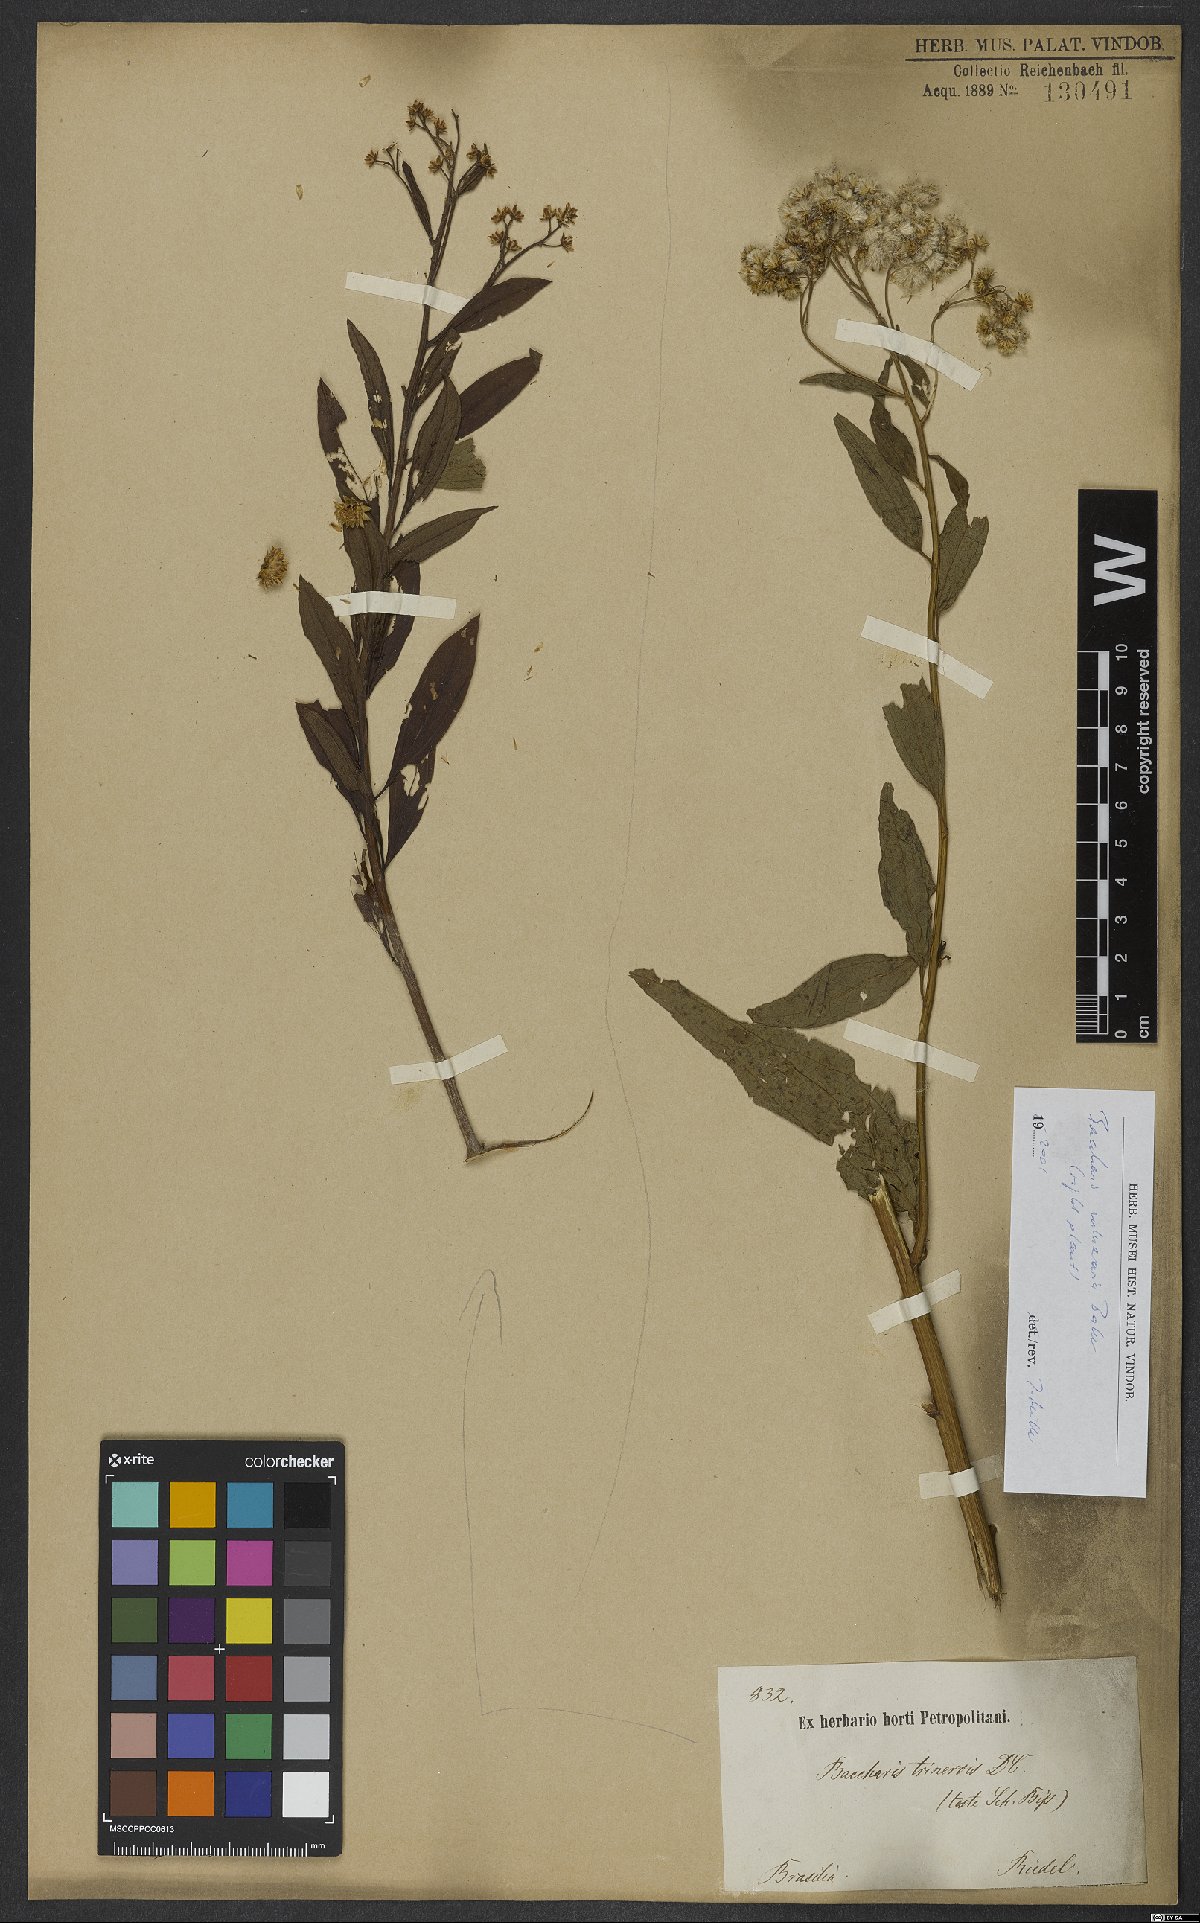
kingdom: Plantae
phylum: Tracheophyta
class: Magnoliopsida
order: Asterales
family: Asteraceae
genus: Baccharis
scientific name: Baccharis trinervis
